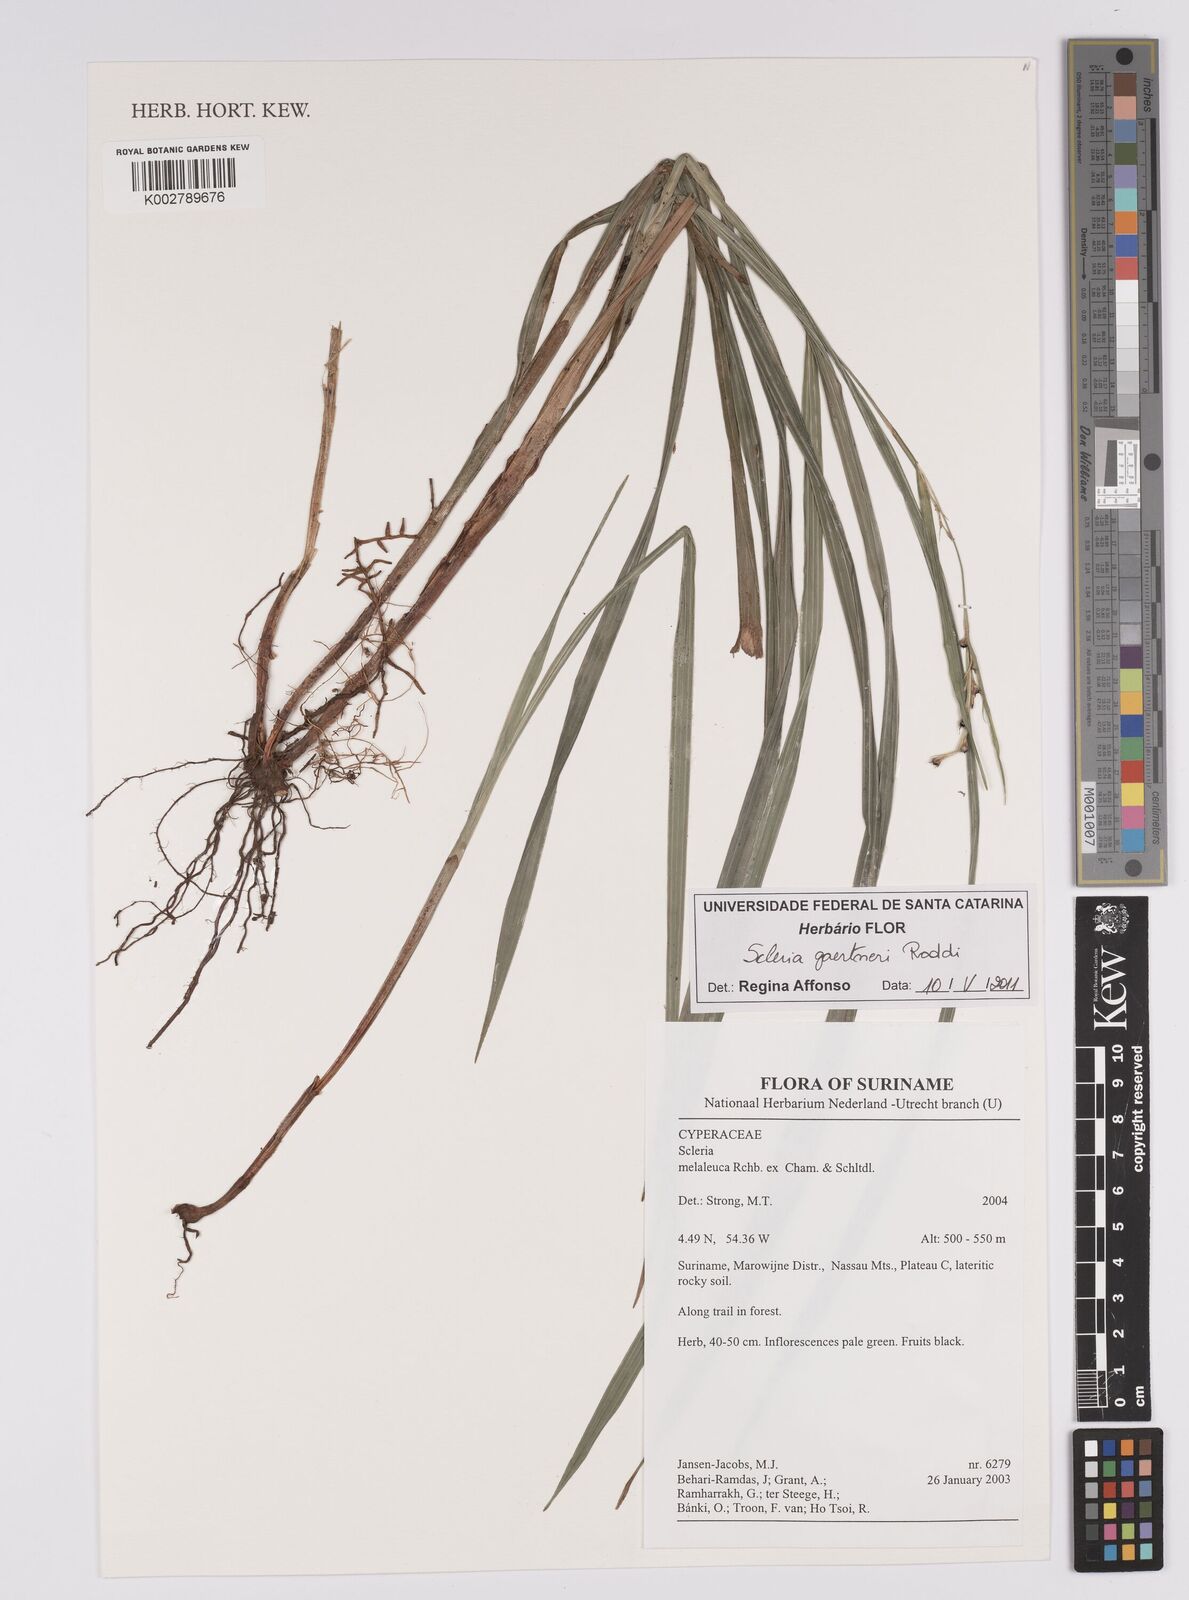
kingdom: Plantae
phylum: Tracheophyta
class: Liliopsida
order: Poales
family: Cyperaceae
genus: Scleria
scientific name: Scleria gaertneri
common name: Cortadera blanca
